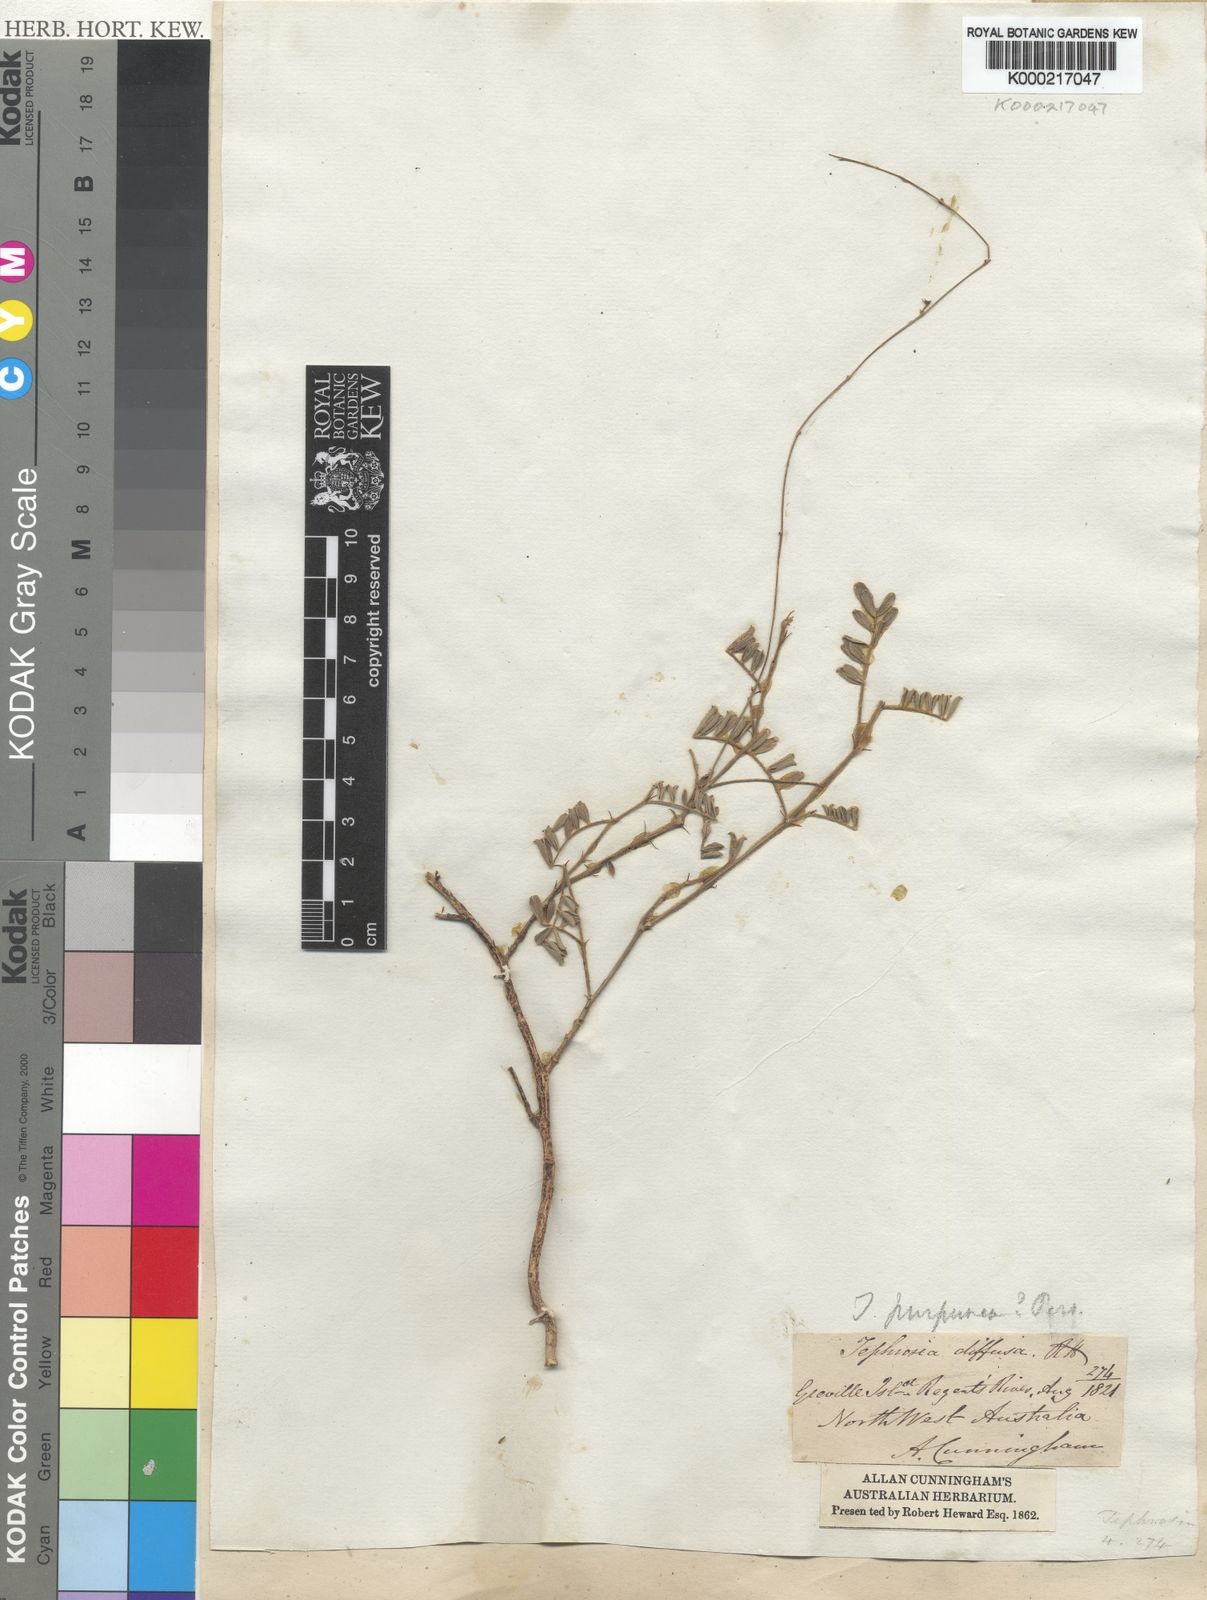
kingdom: Plantae
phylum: Tracheophyta
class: Magnoliopsida
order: Fabales
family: Fabaceae
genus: Tephrosia
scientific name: Tephrosia purpurea
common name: Fishpoison
